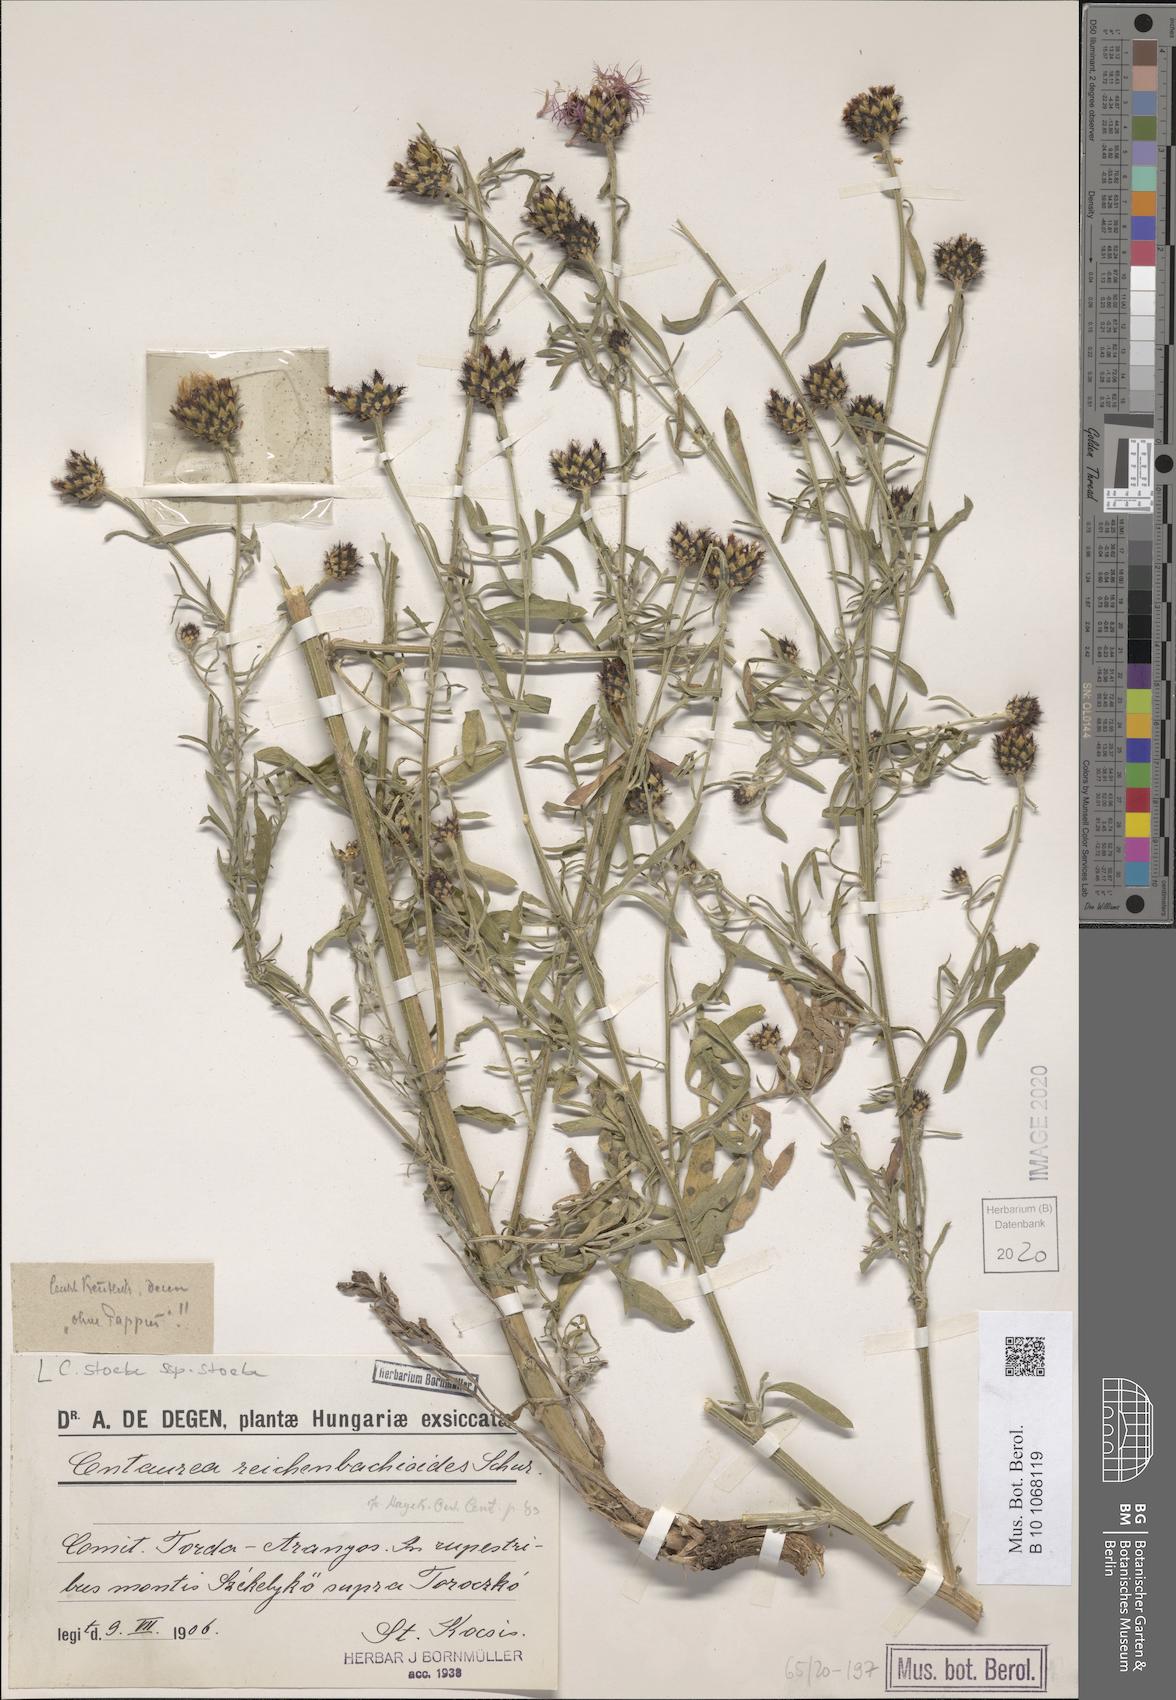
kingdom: Plantae
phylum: Tracheophyta
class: Magnoliopsida
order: Asterales
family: Asteraceae
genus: Centaurea
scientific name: Centaurea stoebe
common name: Spotted knapweed
